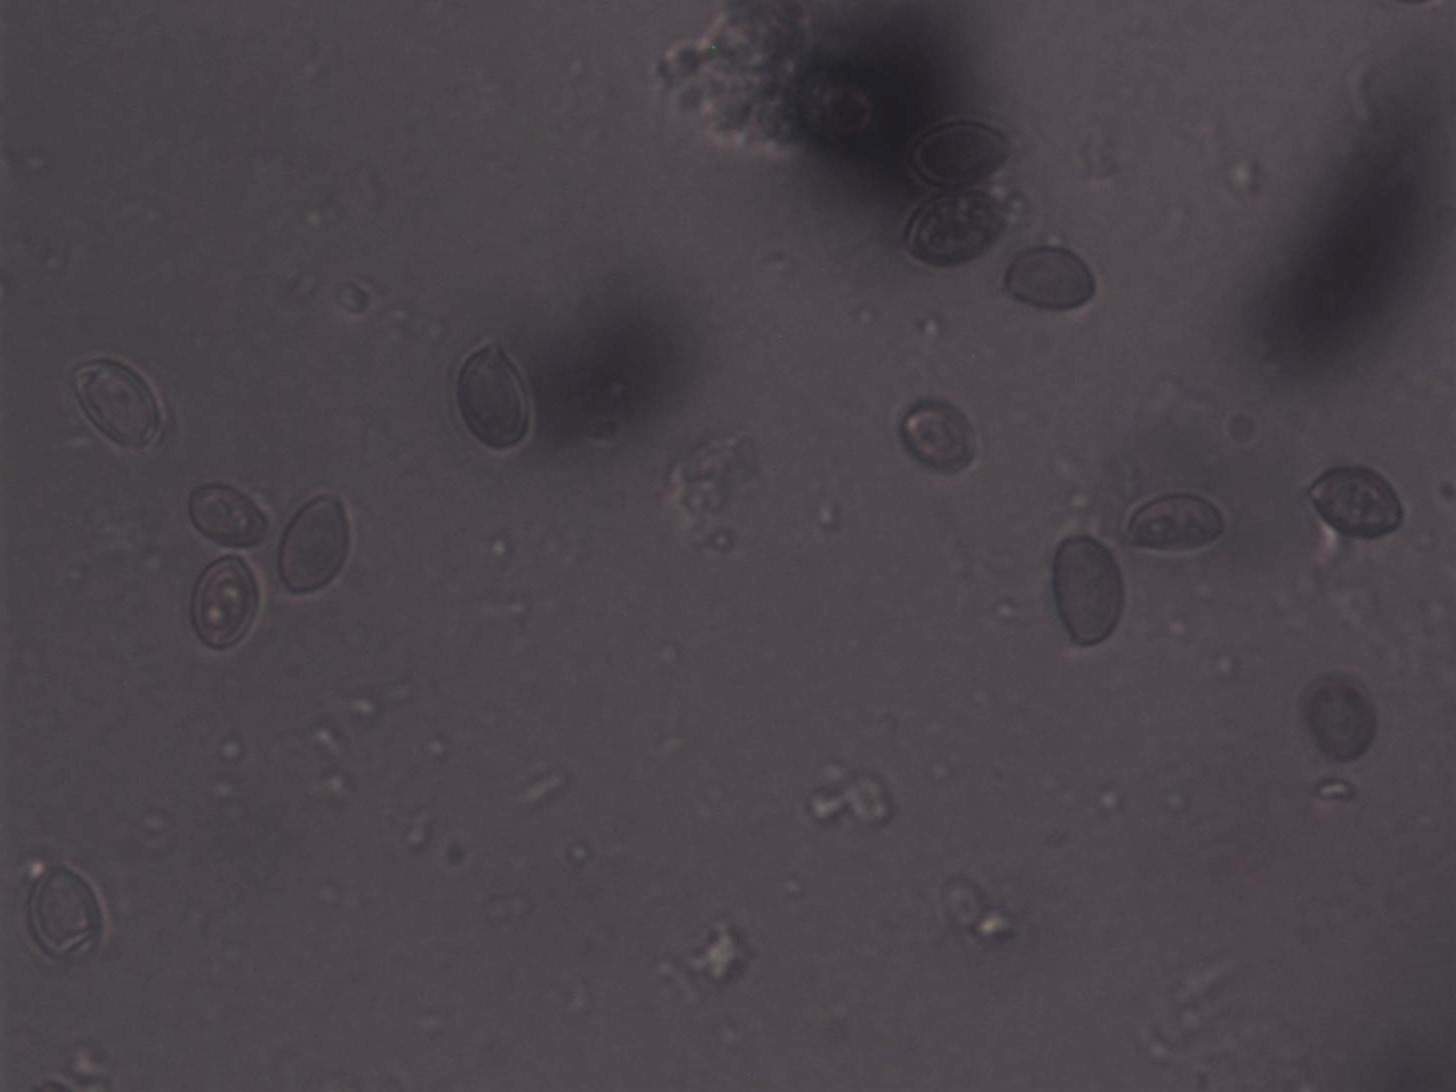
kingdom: Fungi
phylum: Basidiomycota
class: Agaricomycetes
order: Agaricales
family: Strophariaceae
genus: Deconica
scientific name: Deconica montana
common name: rødbrun stråhat
